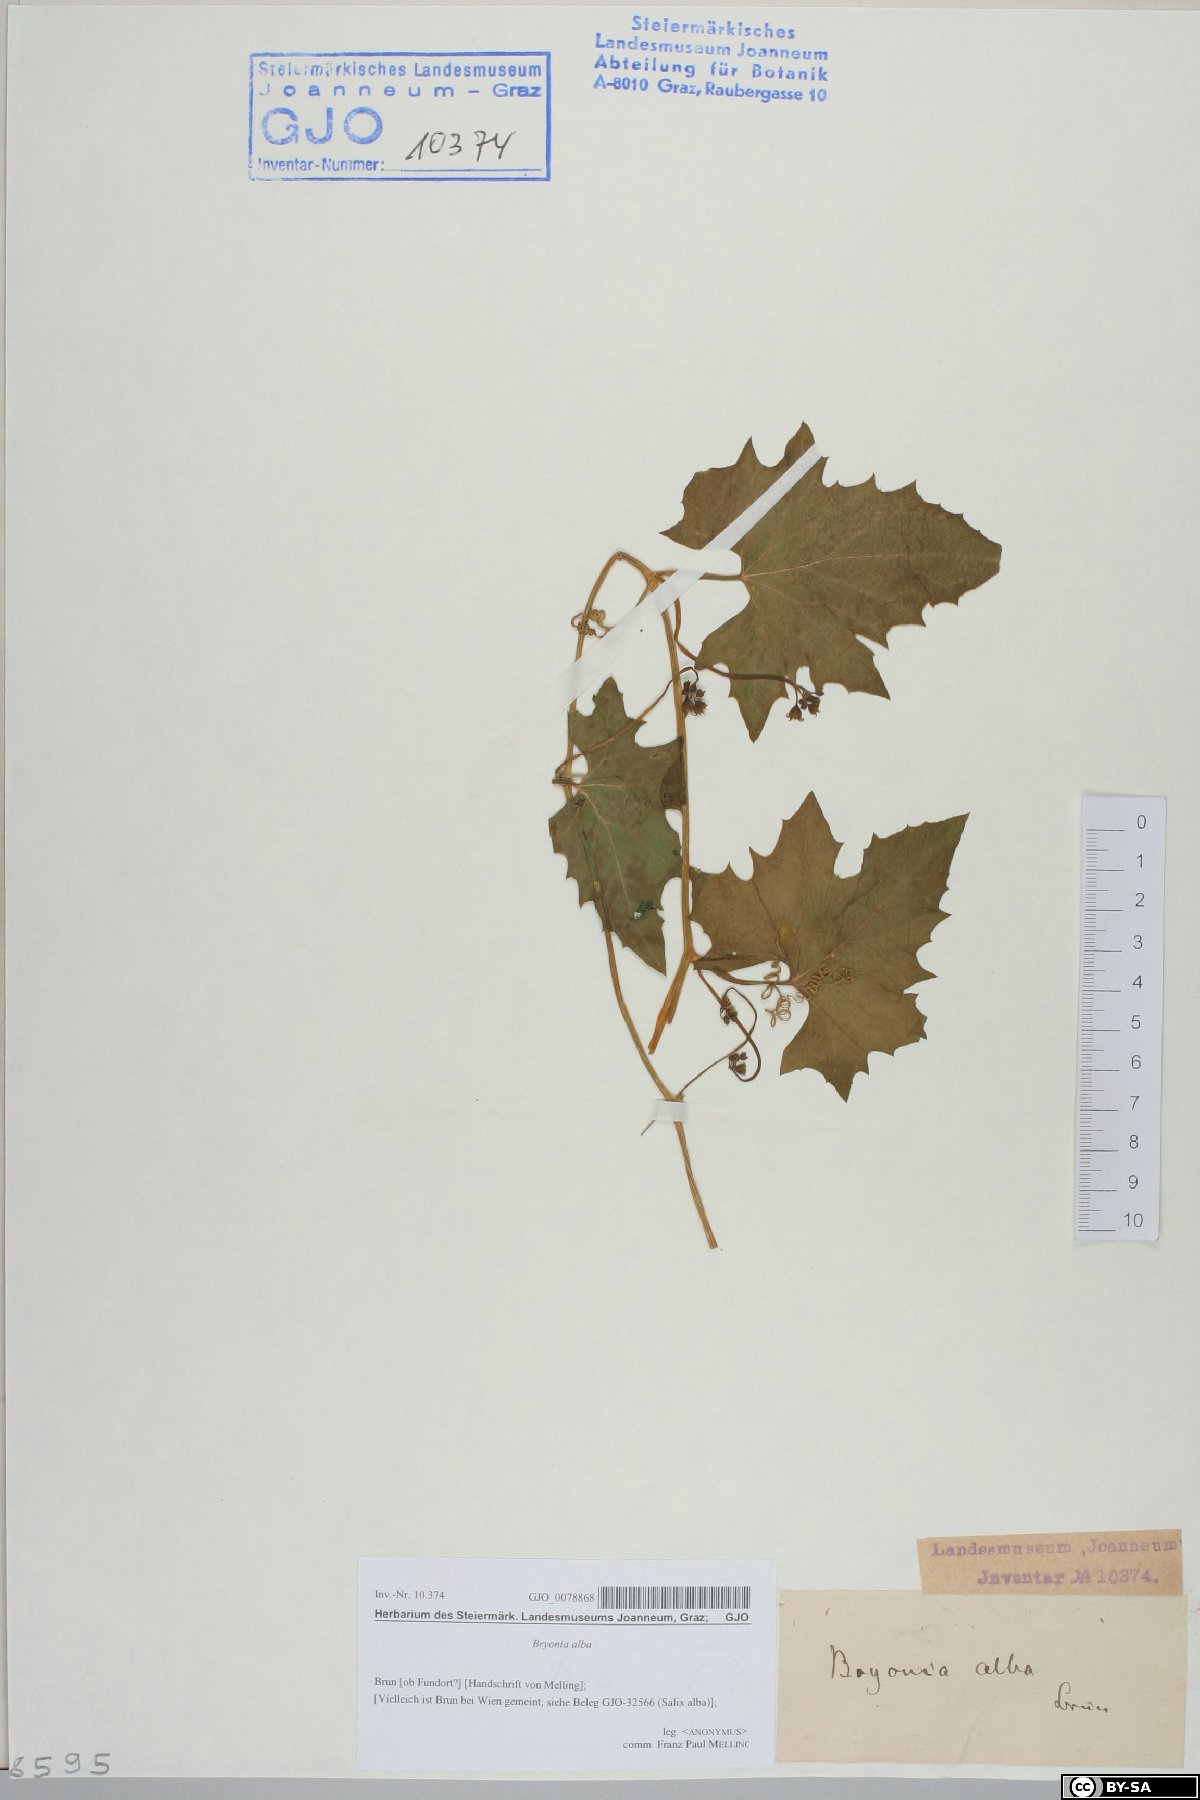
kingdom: Plantae
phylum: Tracheophyta
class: Magnoliopsida
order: Cucurbitales
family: Cucurbitaceae
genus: Bryonia
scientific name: Bryonia alba
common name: White bryony
